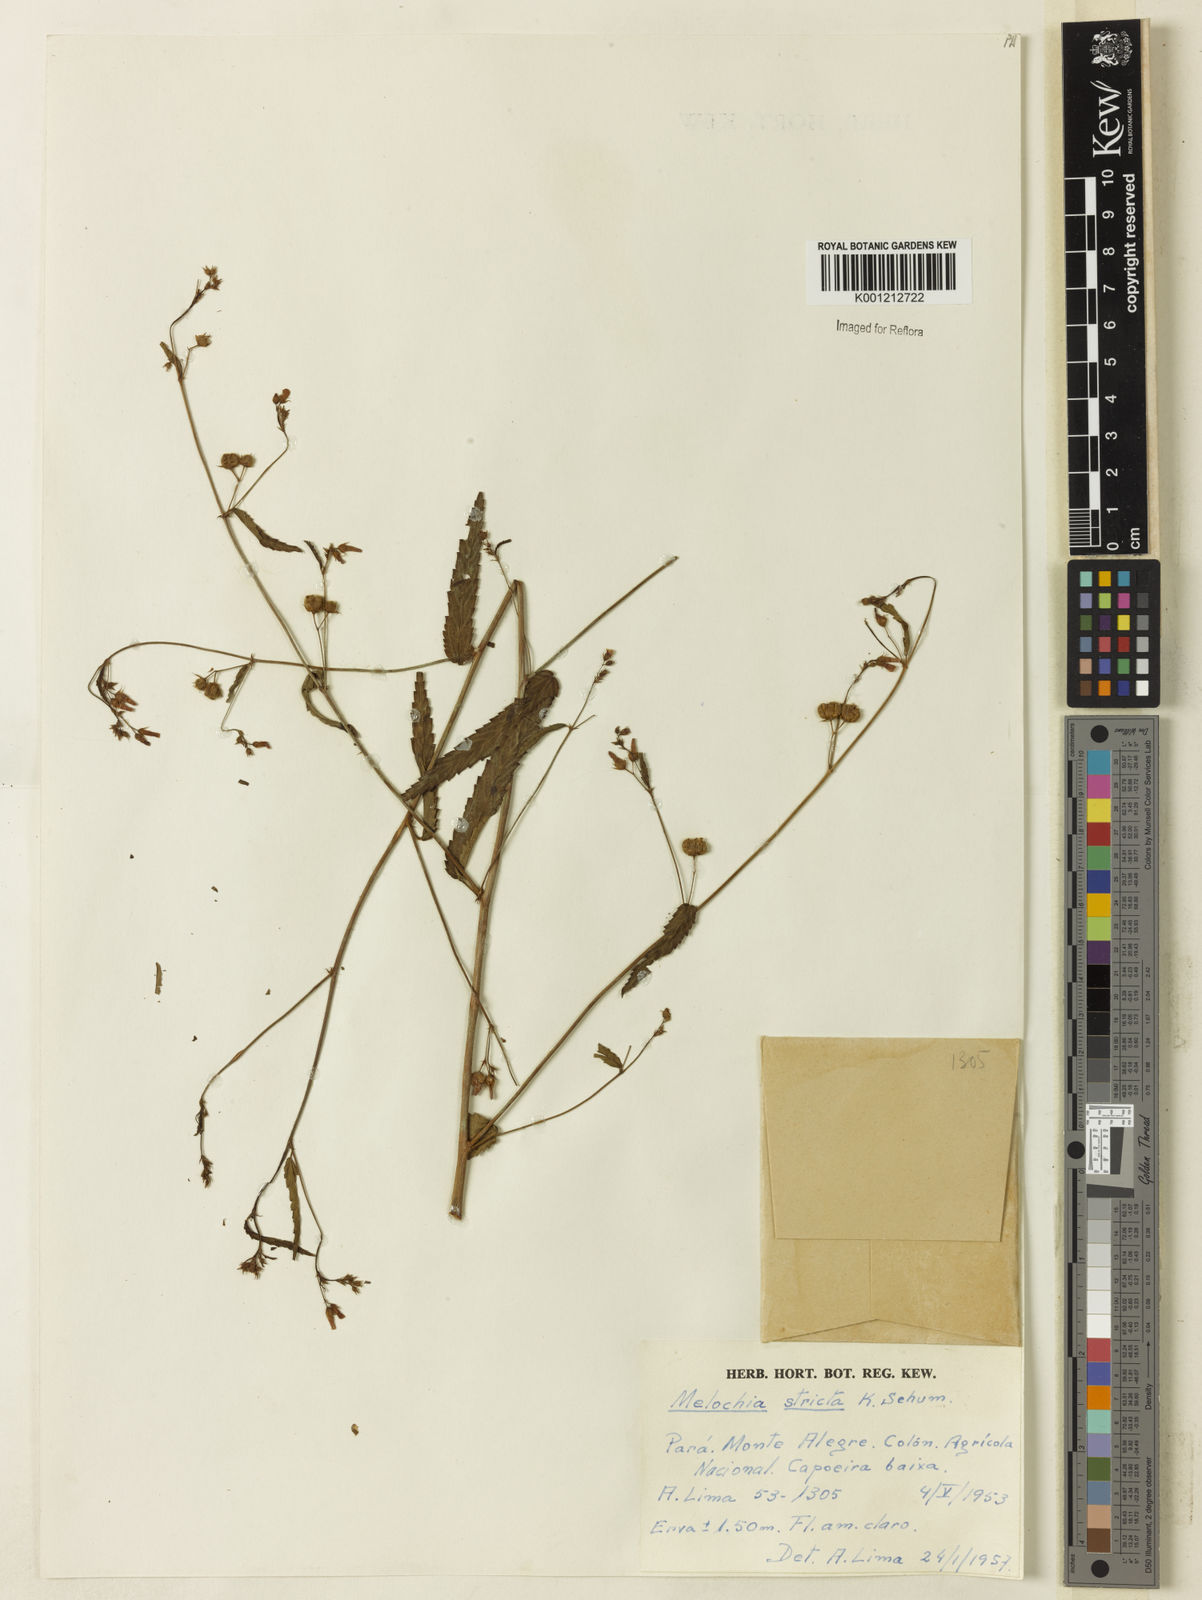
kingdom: Plantae
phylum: Tracheophyta
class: Magnoliopsida
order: Malvales
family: Malvaceae
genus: Melochia
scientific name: Melochia simplex
